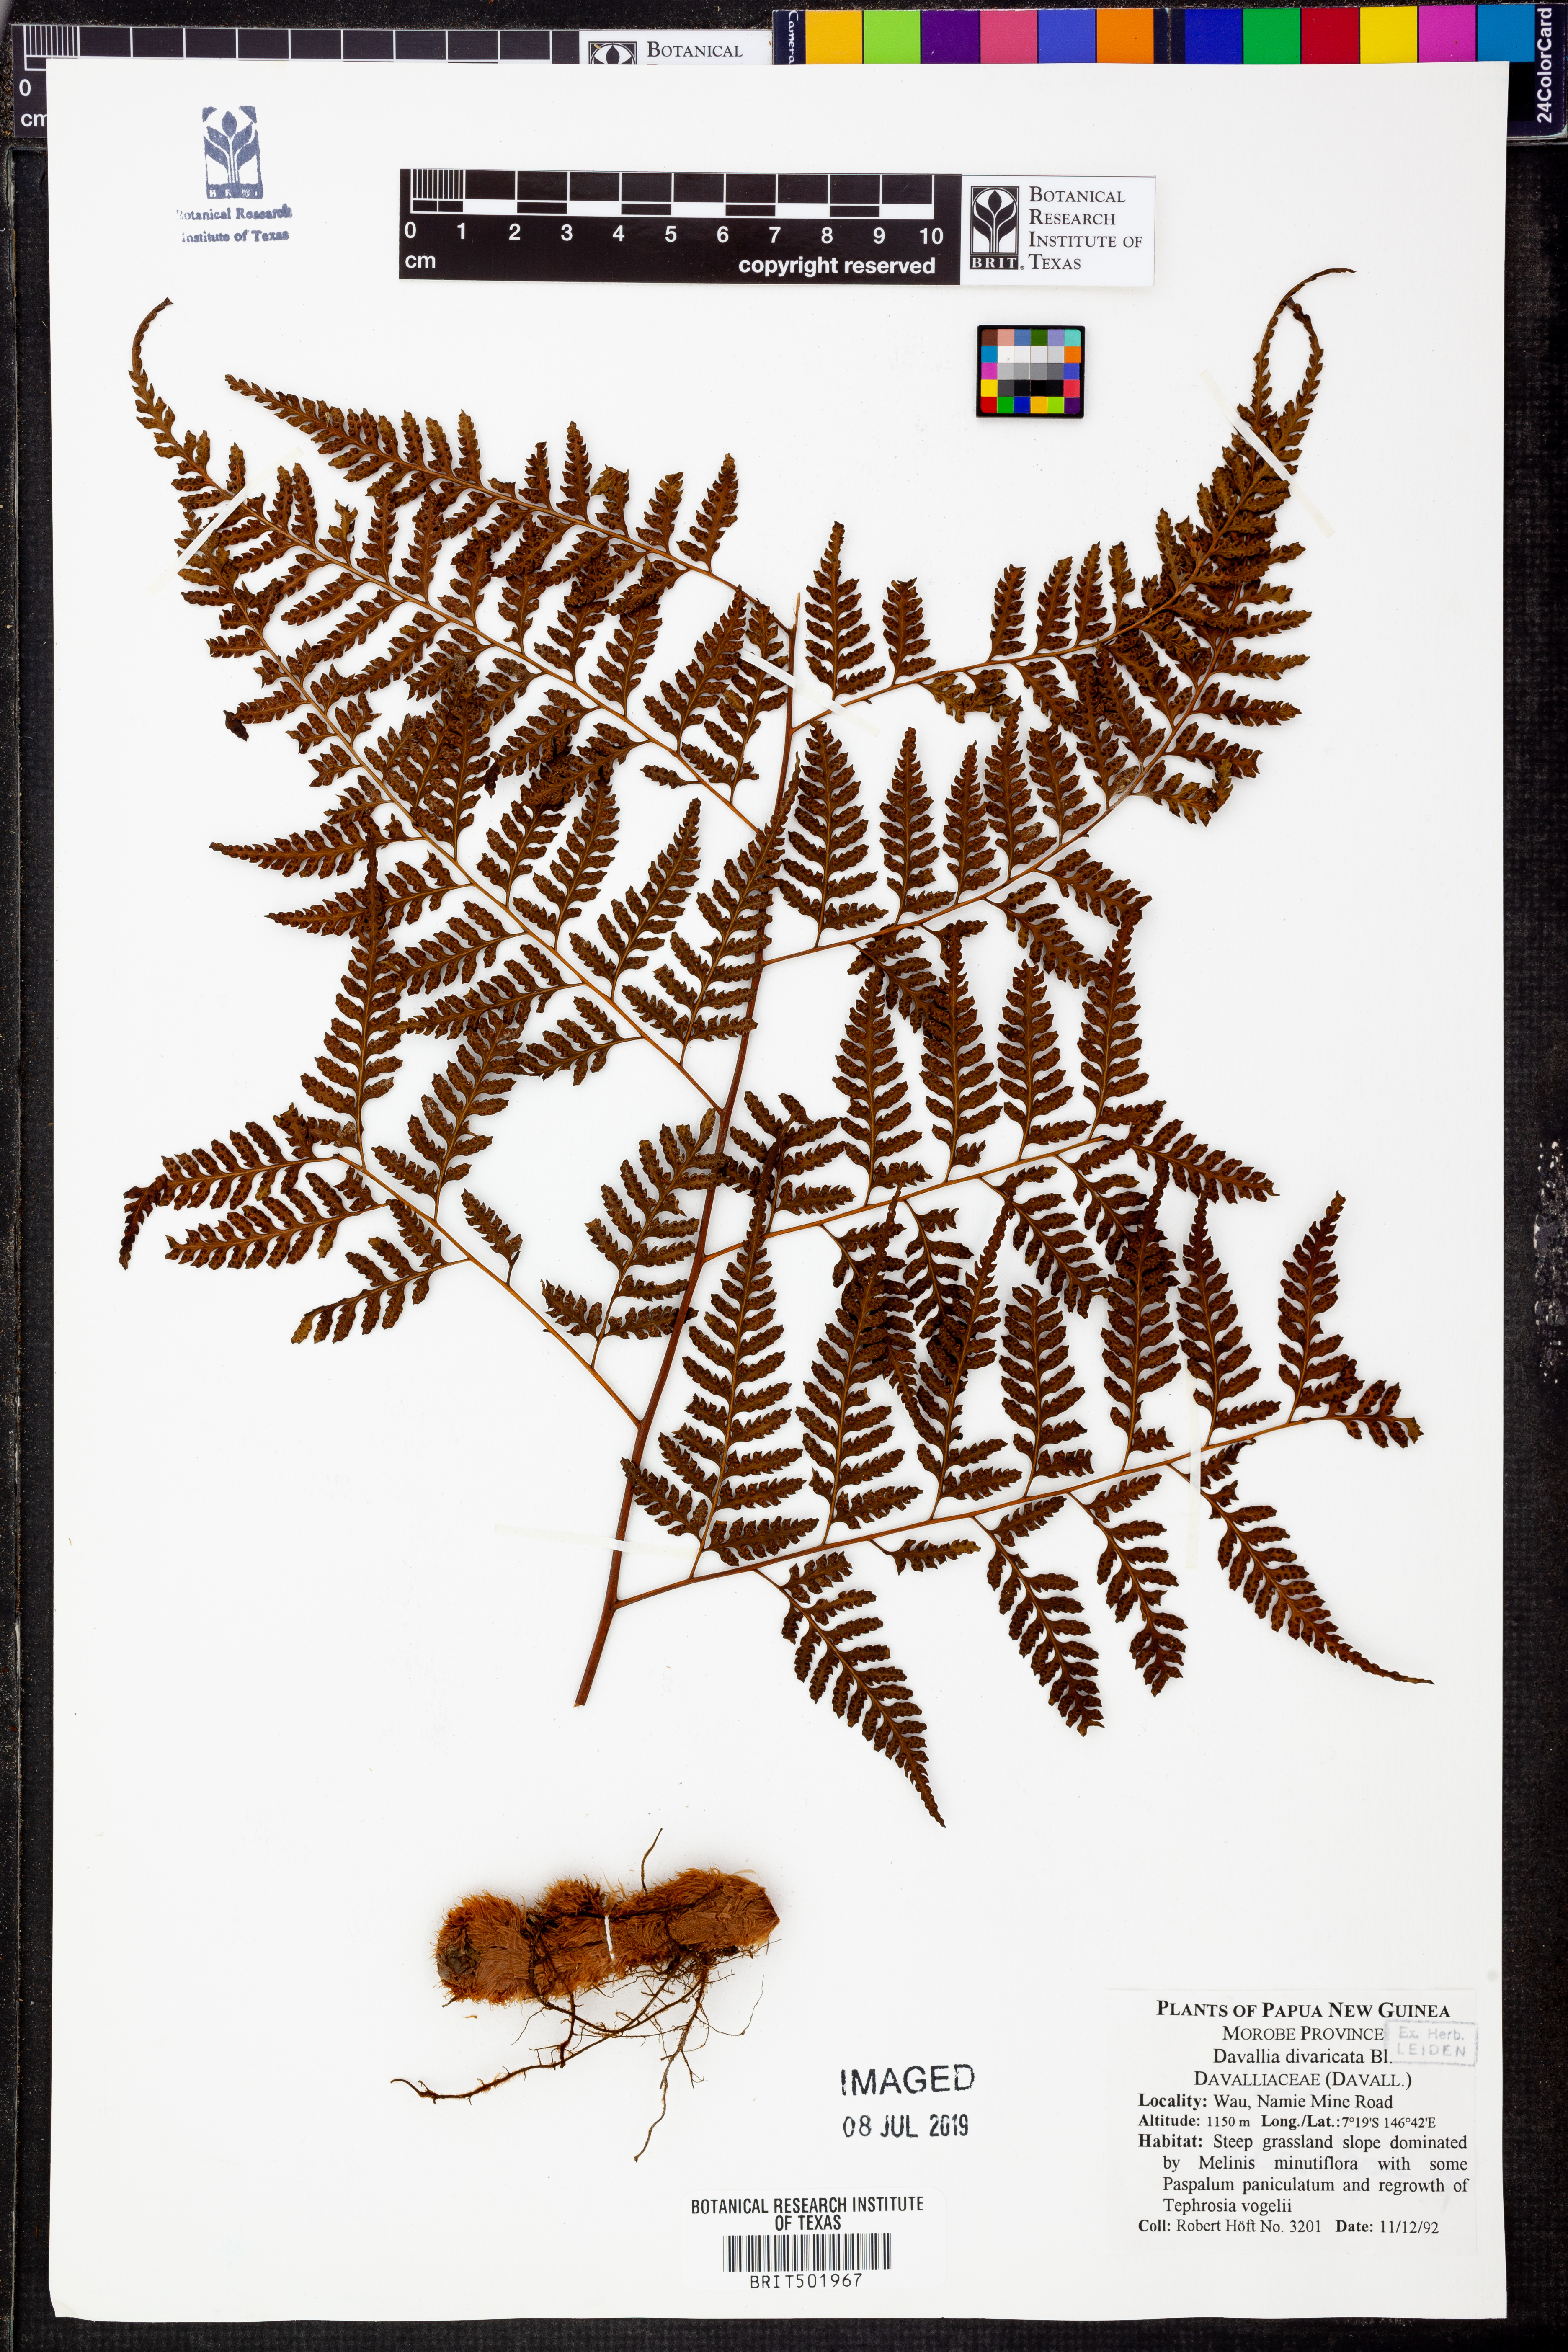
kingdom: Plantae
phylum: Tracheophyta
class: Polypodiopsida
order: Polypodiales
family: Davalliaceae
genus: Davallia
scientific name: Davallia divaricata
